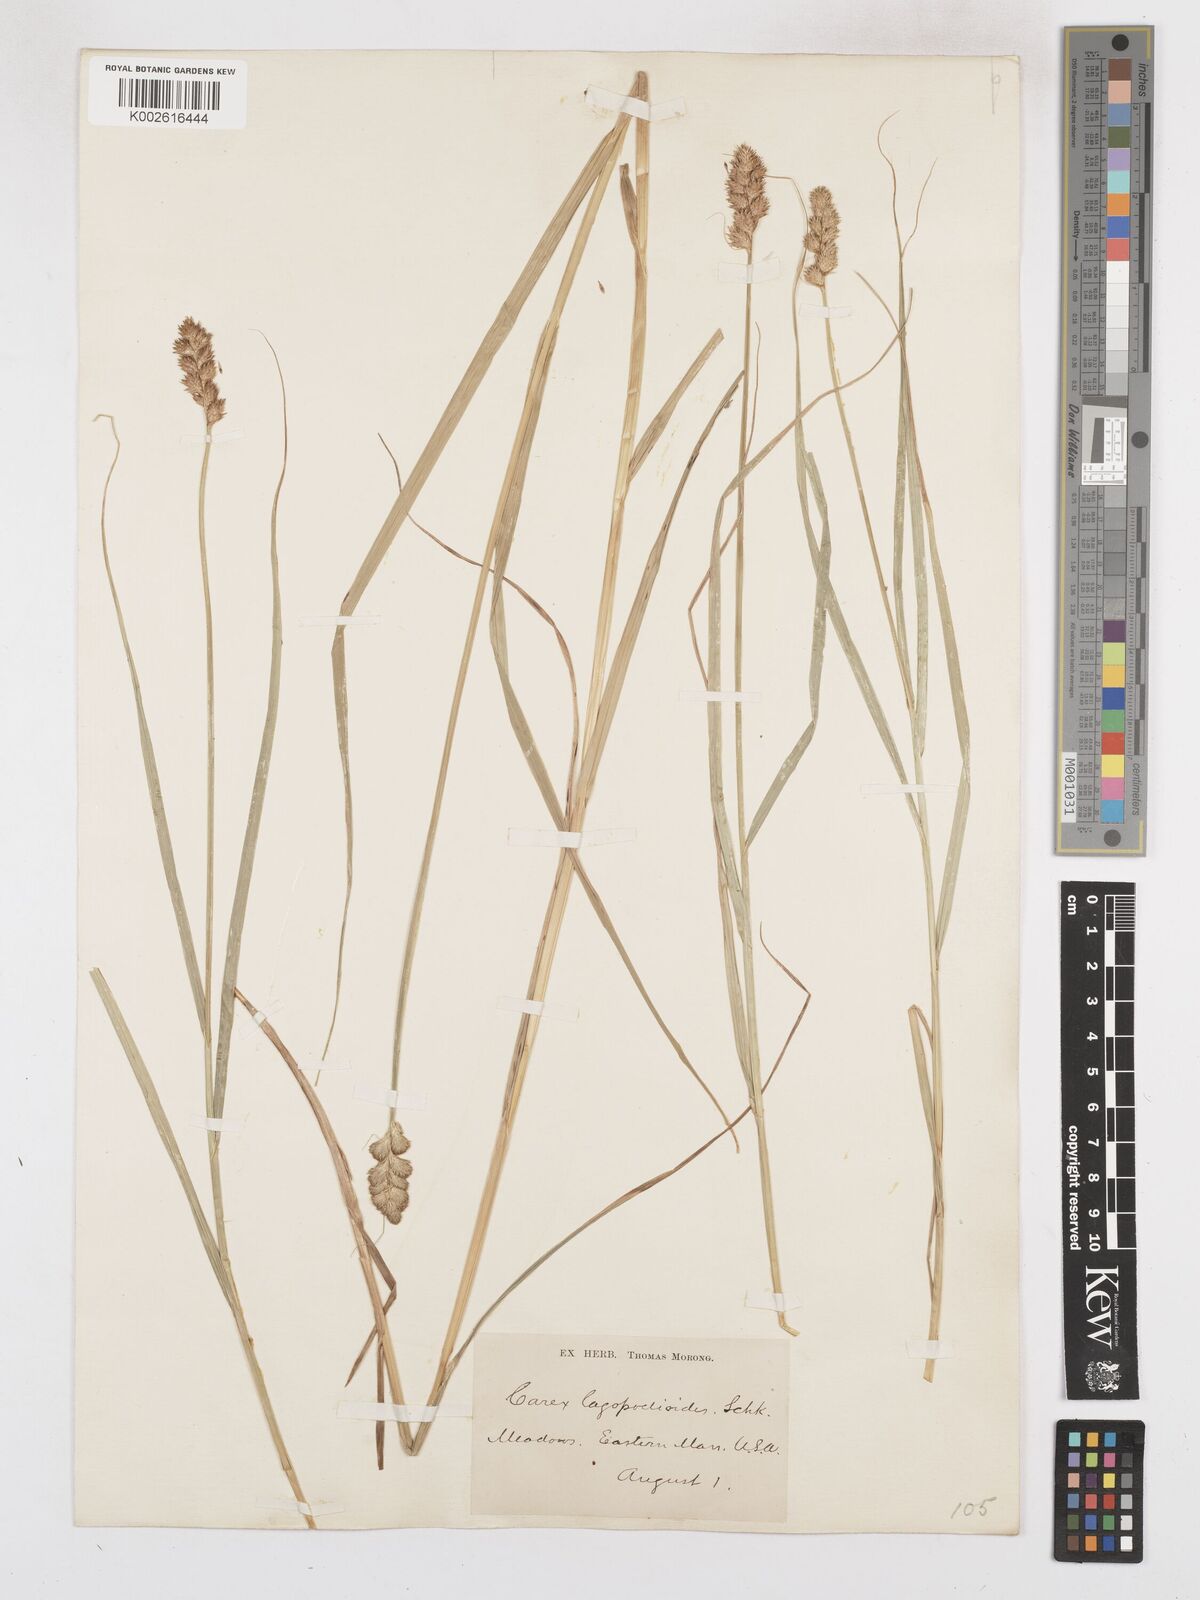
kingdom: Plantae
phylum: Tracheophyta
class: Liliopsida
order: Poales
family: Cyperaceae
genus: Carex
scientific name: Carex tribuloides
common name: Blunt broom sedge
